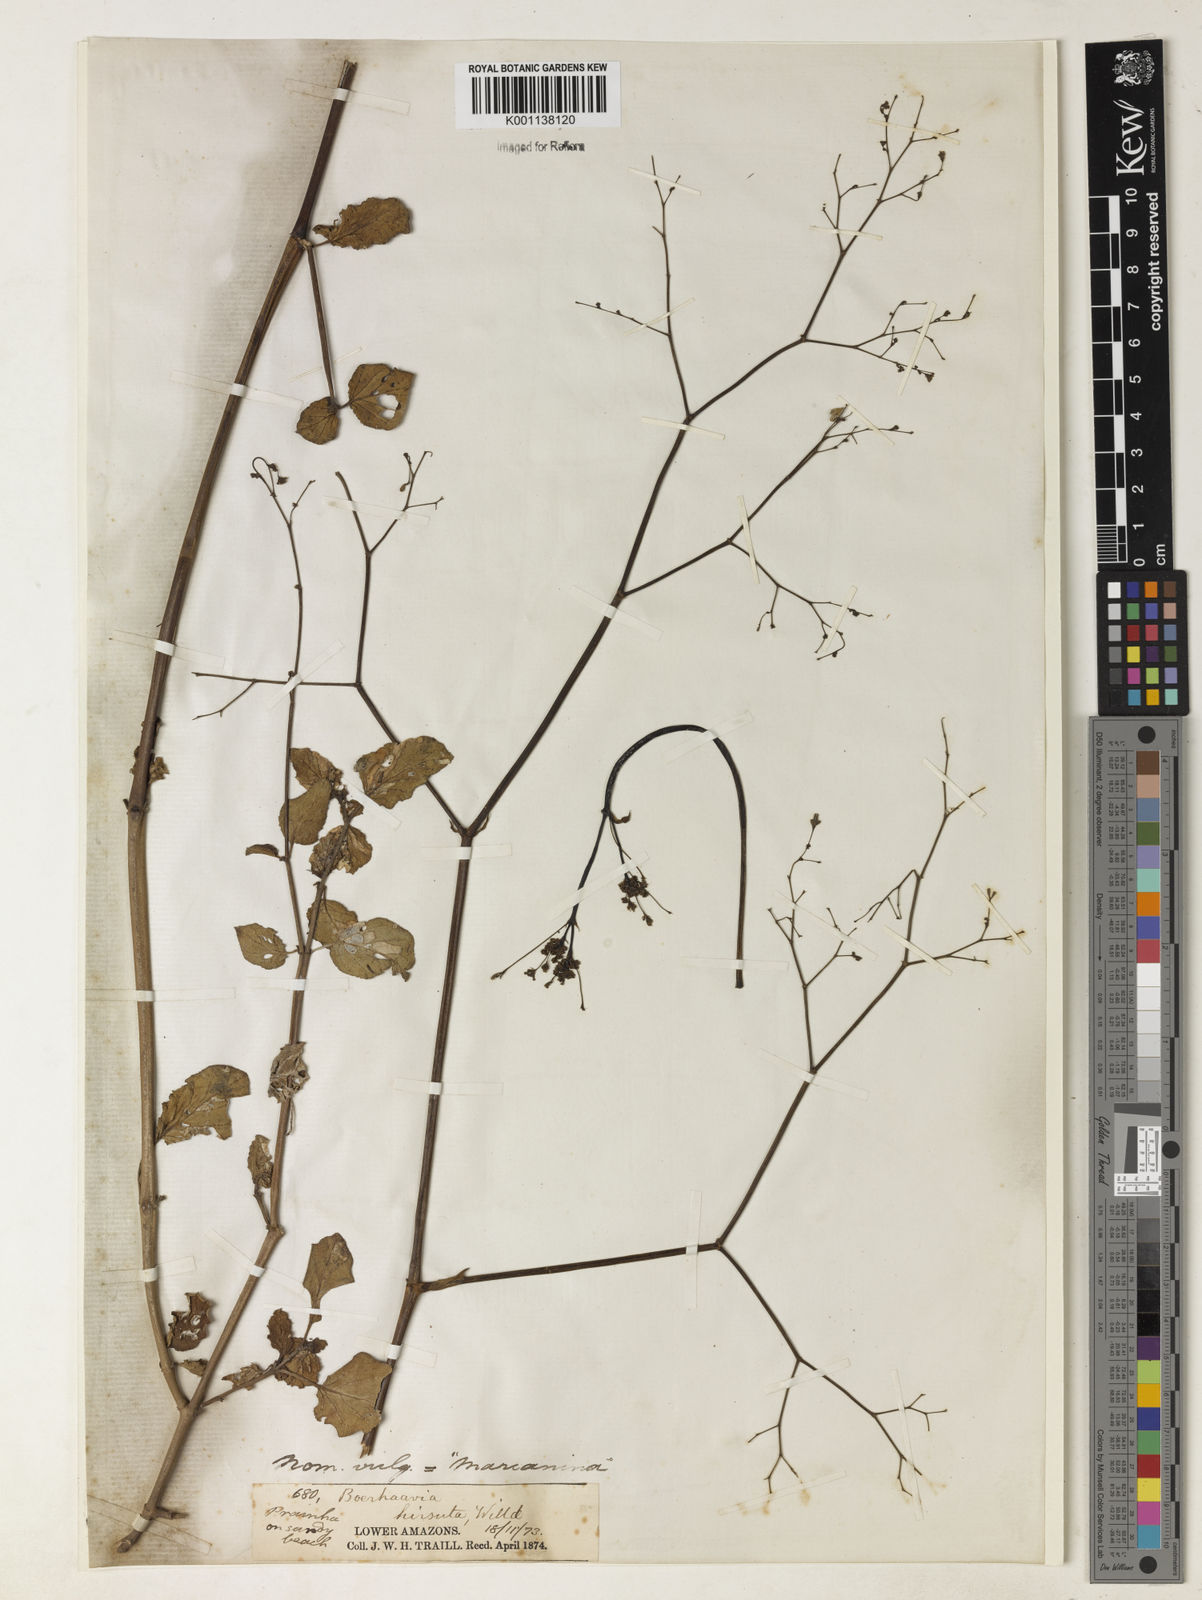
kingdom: Plantae
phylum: Tracheophyta
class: Magnoliopsida
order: Caryophyllales
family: Nyctaginaceae
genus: Boerhavia
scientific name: Boerhavia diffusa
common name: Red spiderling
